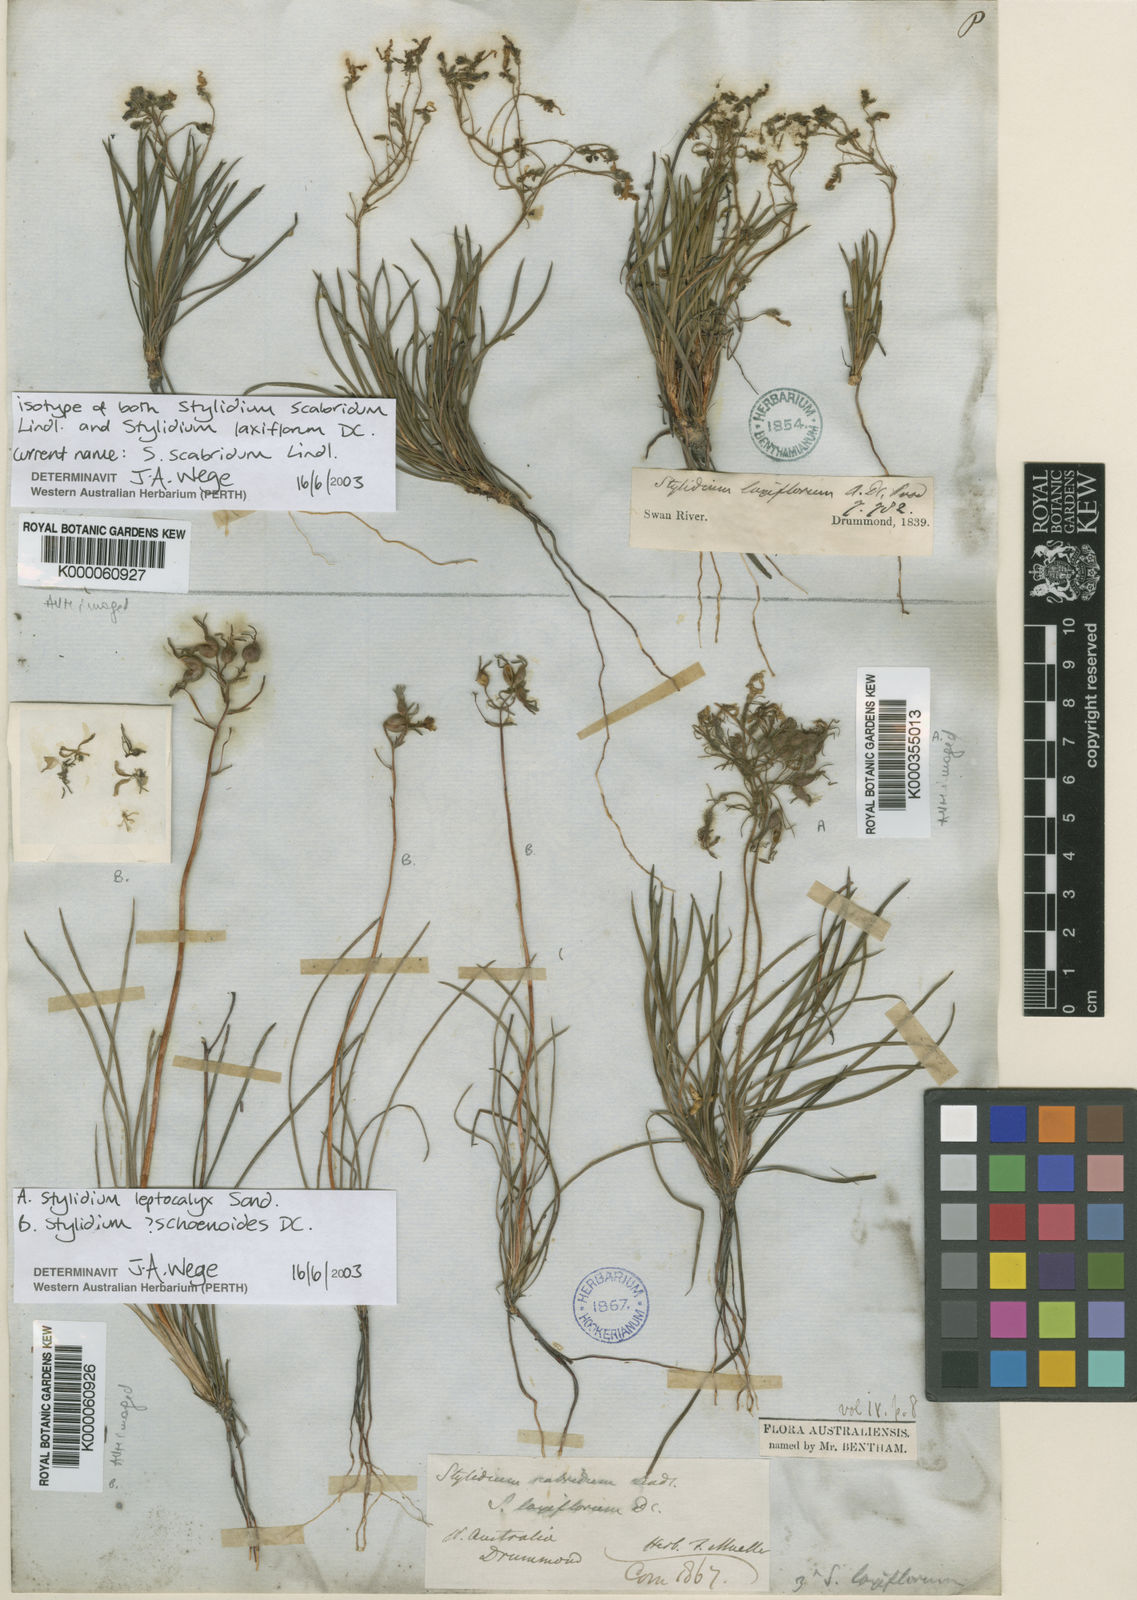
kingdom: Plantae
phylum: Tracheophyta
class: Magnoliopsida
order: Asterales
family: Stylidiaceae
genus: Stylidium
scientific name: Stylidium scabridum
